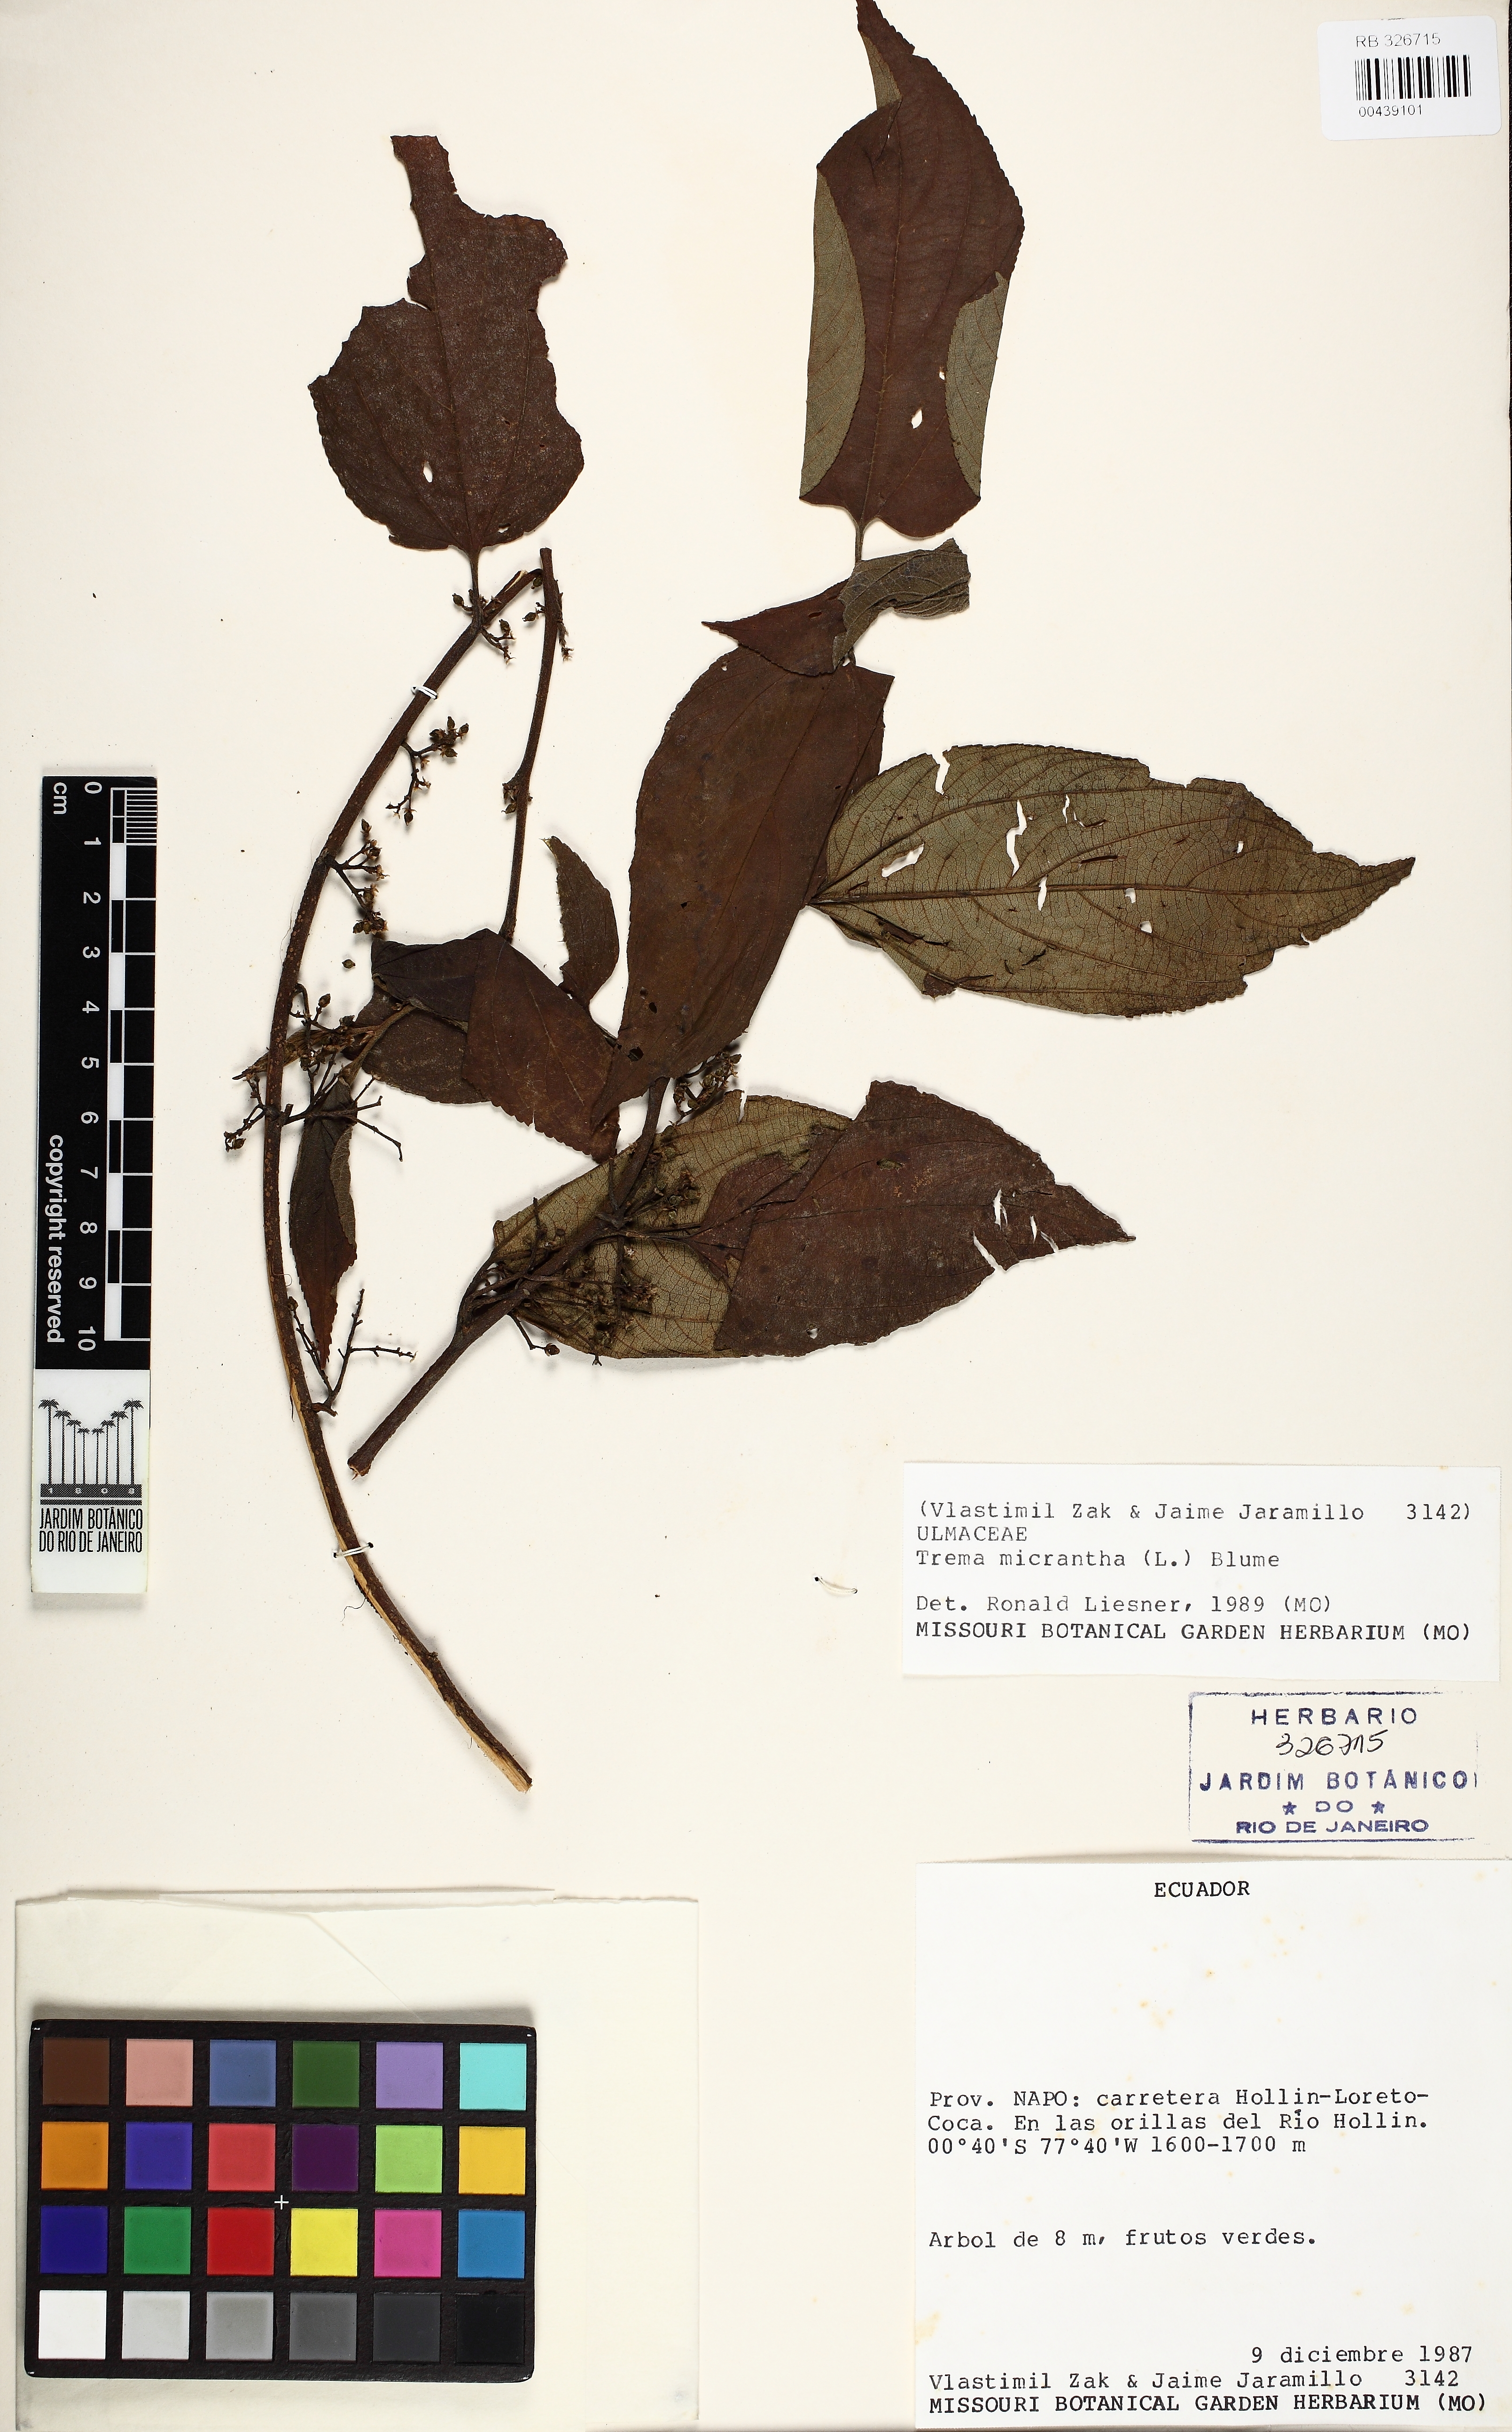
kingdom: Plantae
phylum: Tracheophyta
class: Magnoliopsida
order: Rosales
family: Cannabaceae
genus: Trema
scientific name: Trema micranthum
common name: Jamaican nettletree
